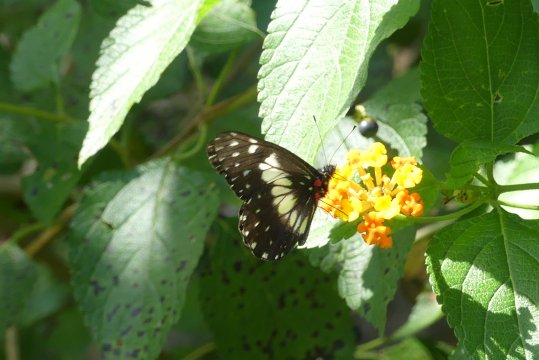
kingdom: Animalia
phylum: Arthropoda
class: Insecta
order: Lepidoptera
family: Pieridae
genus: Catasticta
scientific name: Catasticta sisamnus
